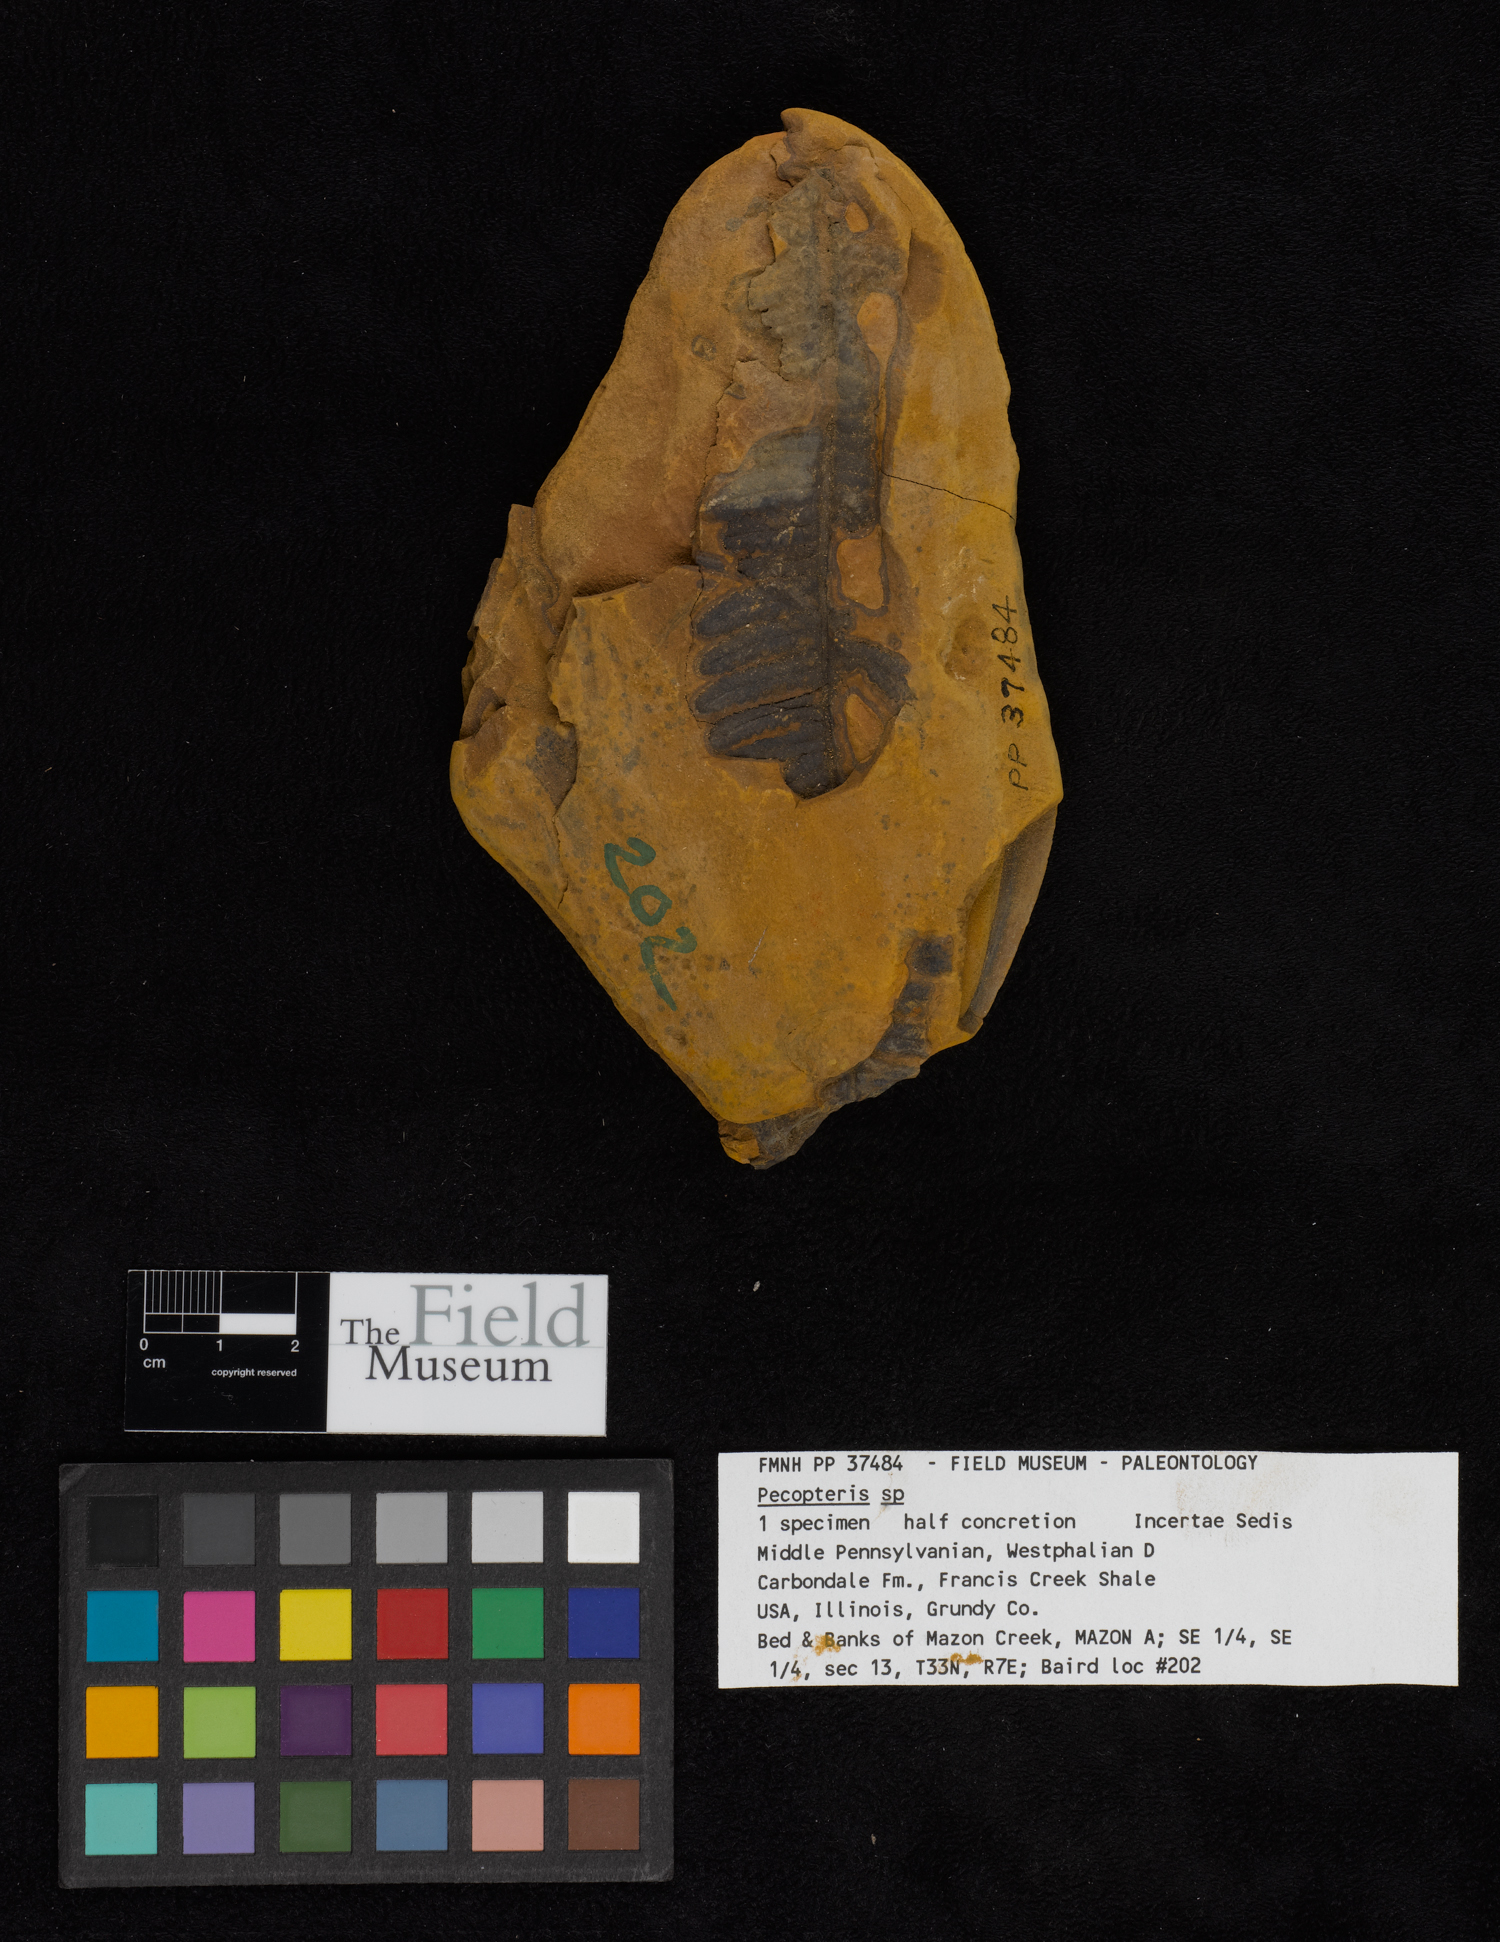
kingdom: Plantae
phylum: Tracheophyta
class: Polypodiopsida
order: Marattiales
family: Asterothecaceae
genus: Pecopteris
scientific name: Pecopteris
